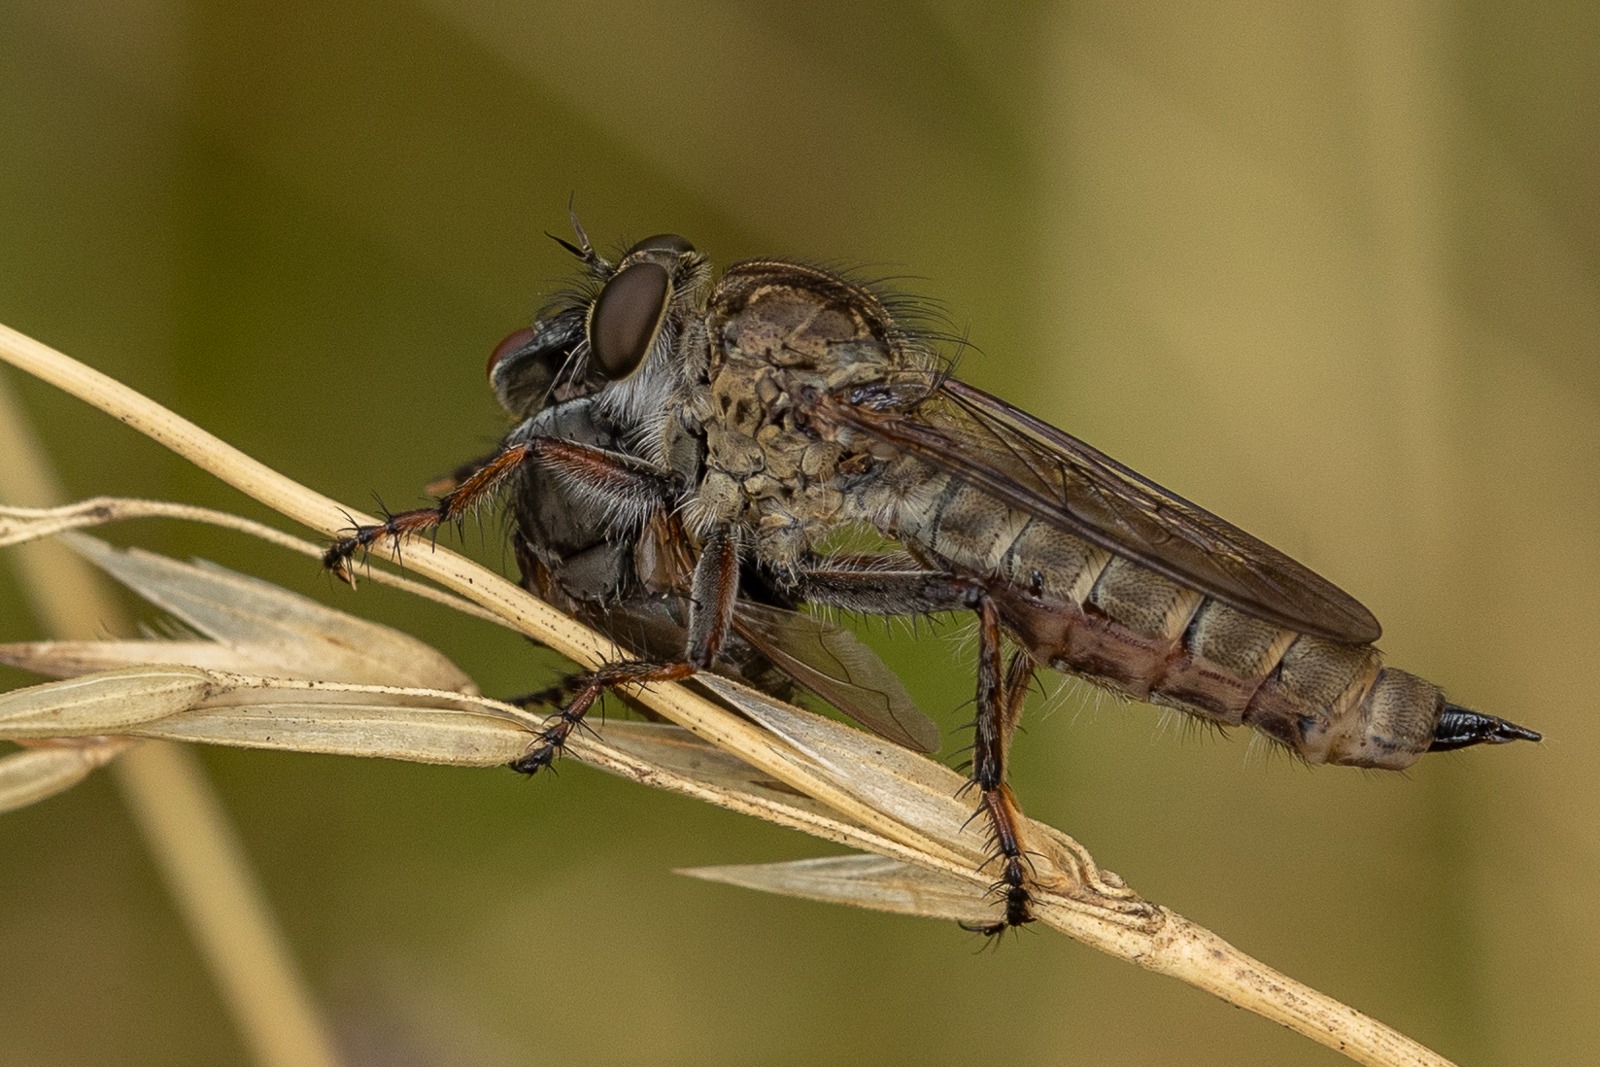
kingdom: Animalia
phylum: Arthropoda
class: Insecta
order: Diptera
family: Asilidae
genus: Machimus
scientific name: Machimus atricapillus
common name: Sort hårrovflue
